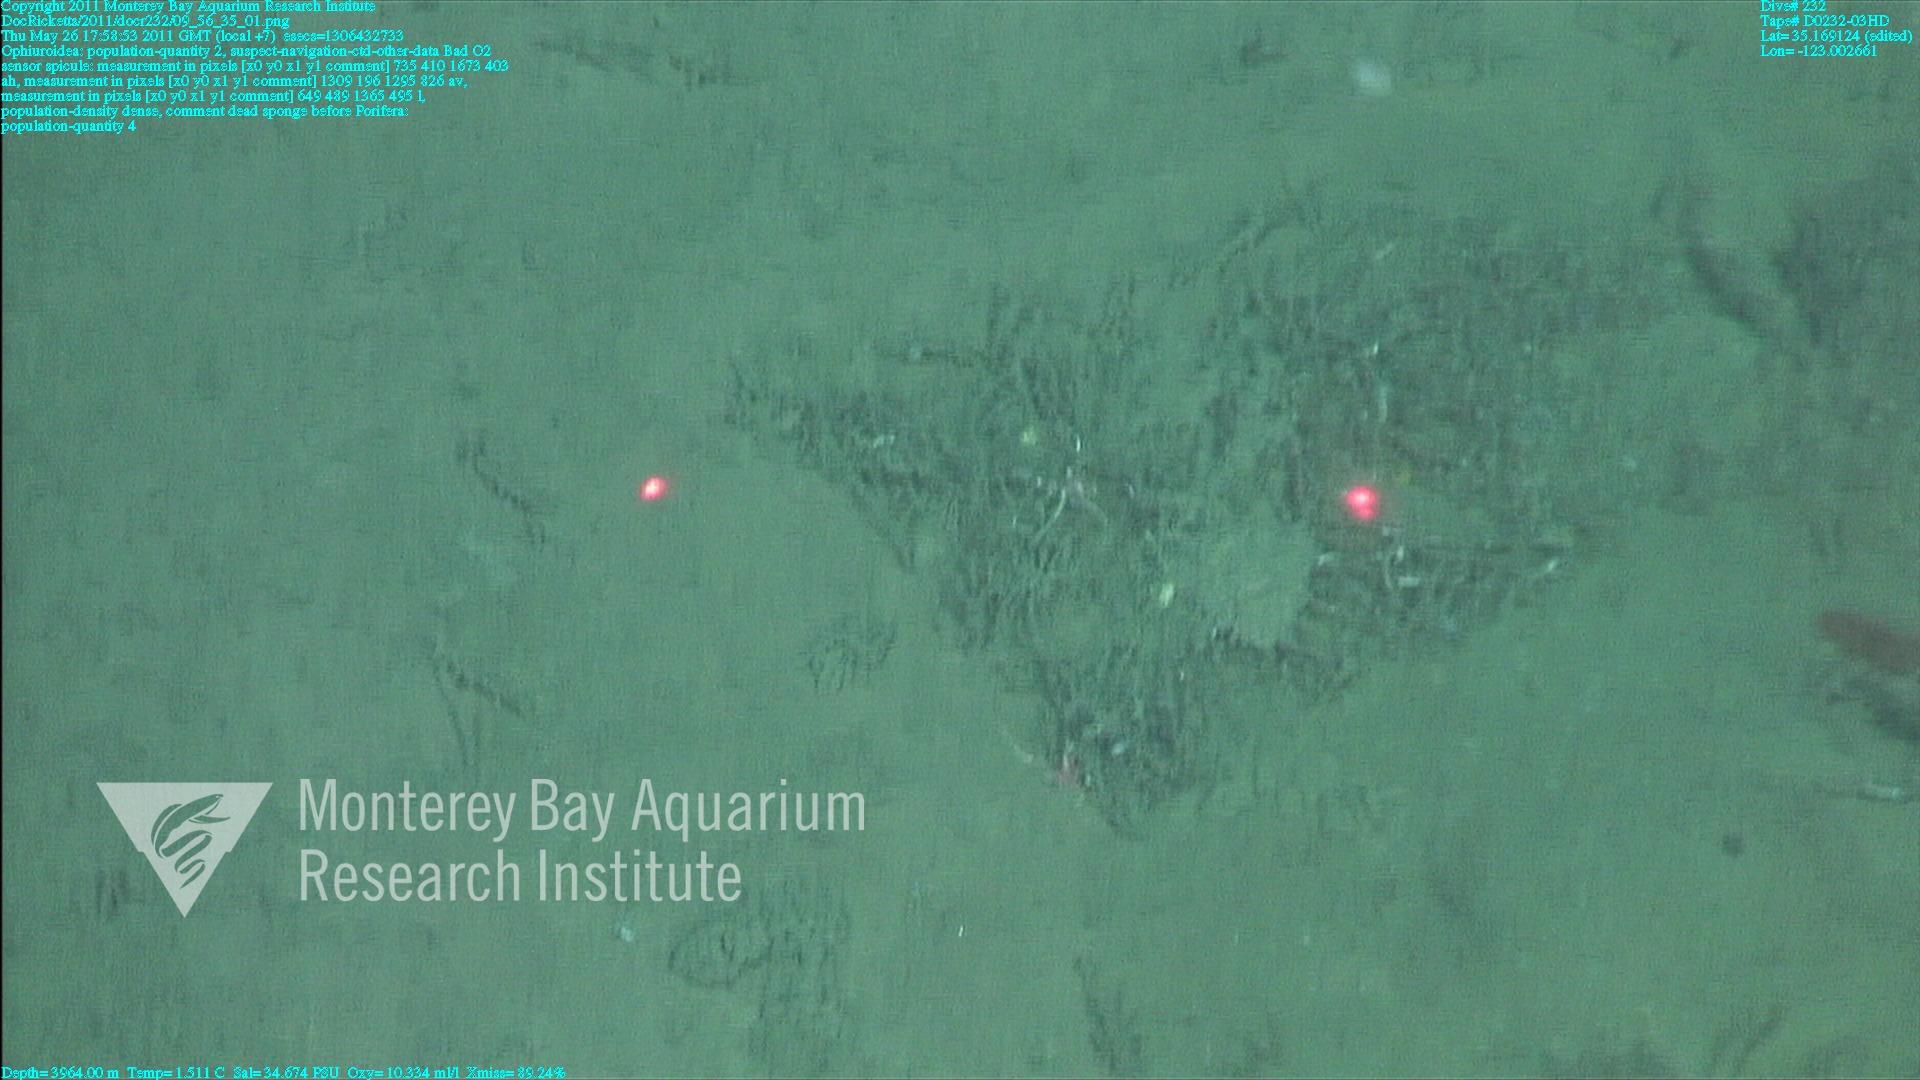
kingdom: Animalia
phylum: Porifera
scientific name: Porifera
